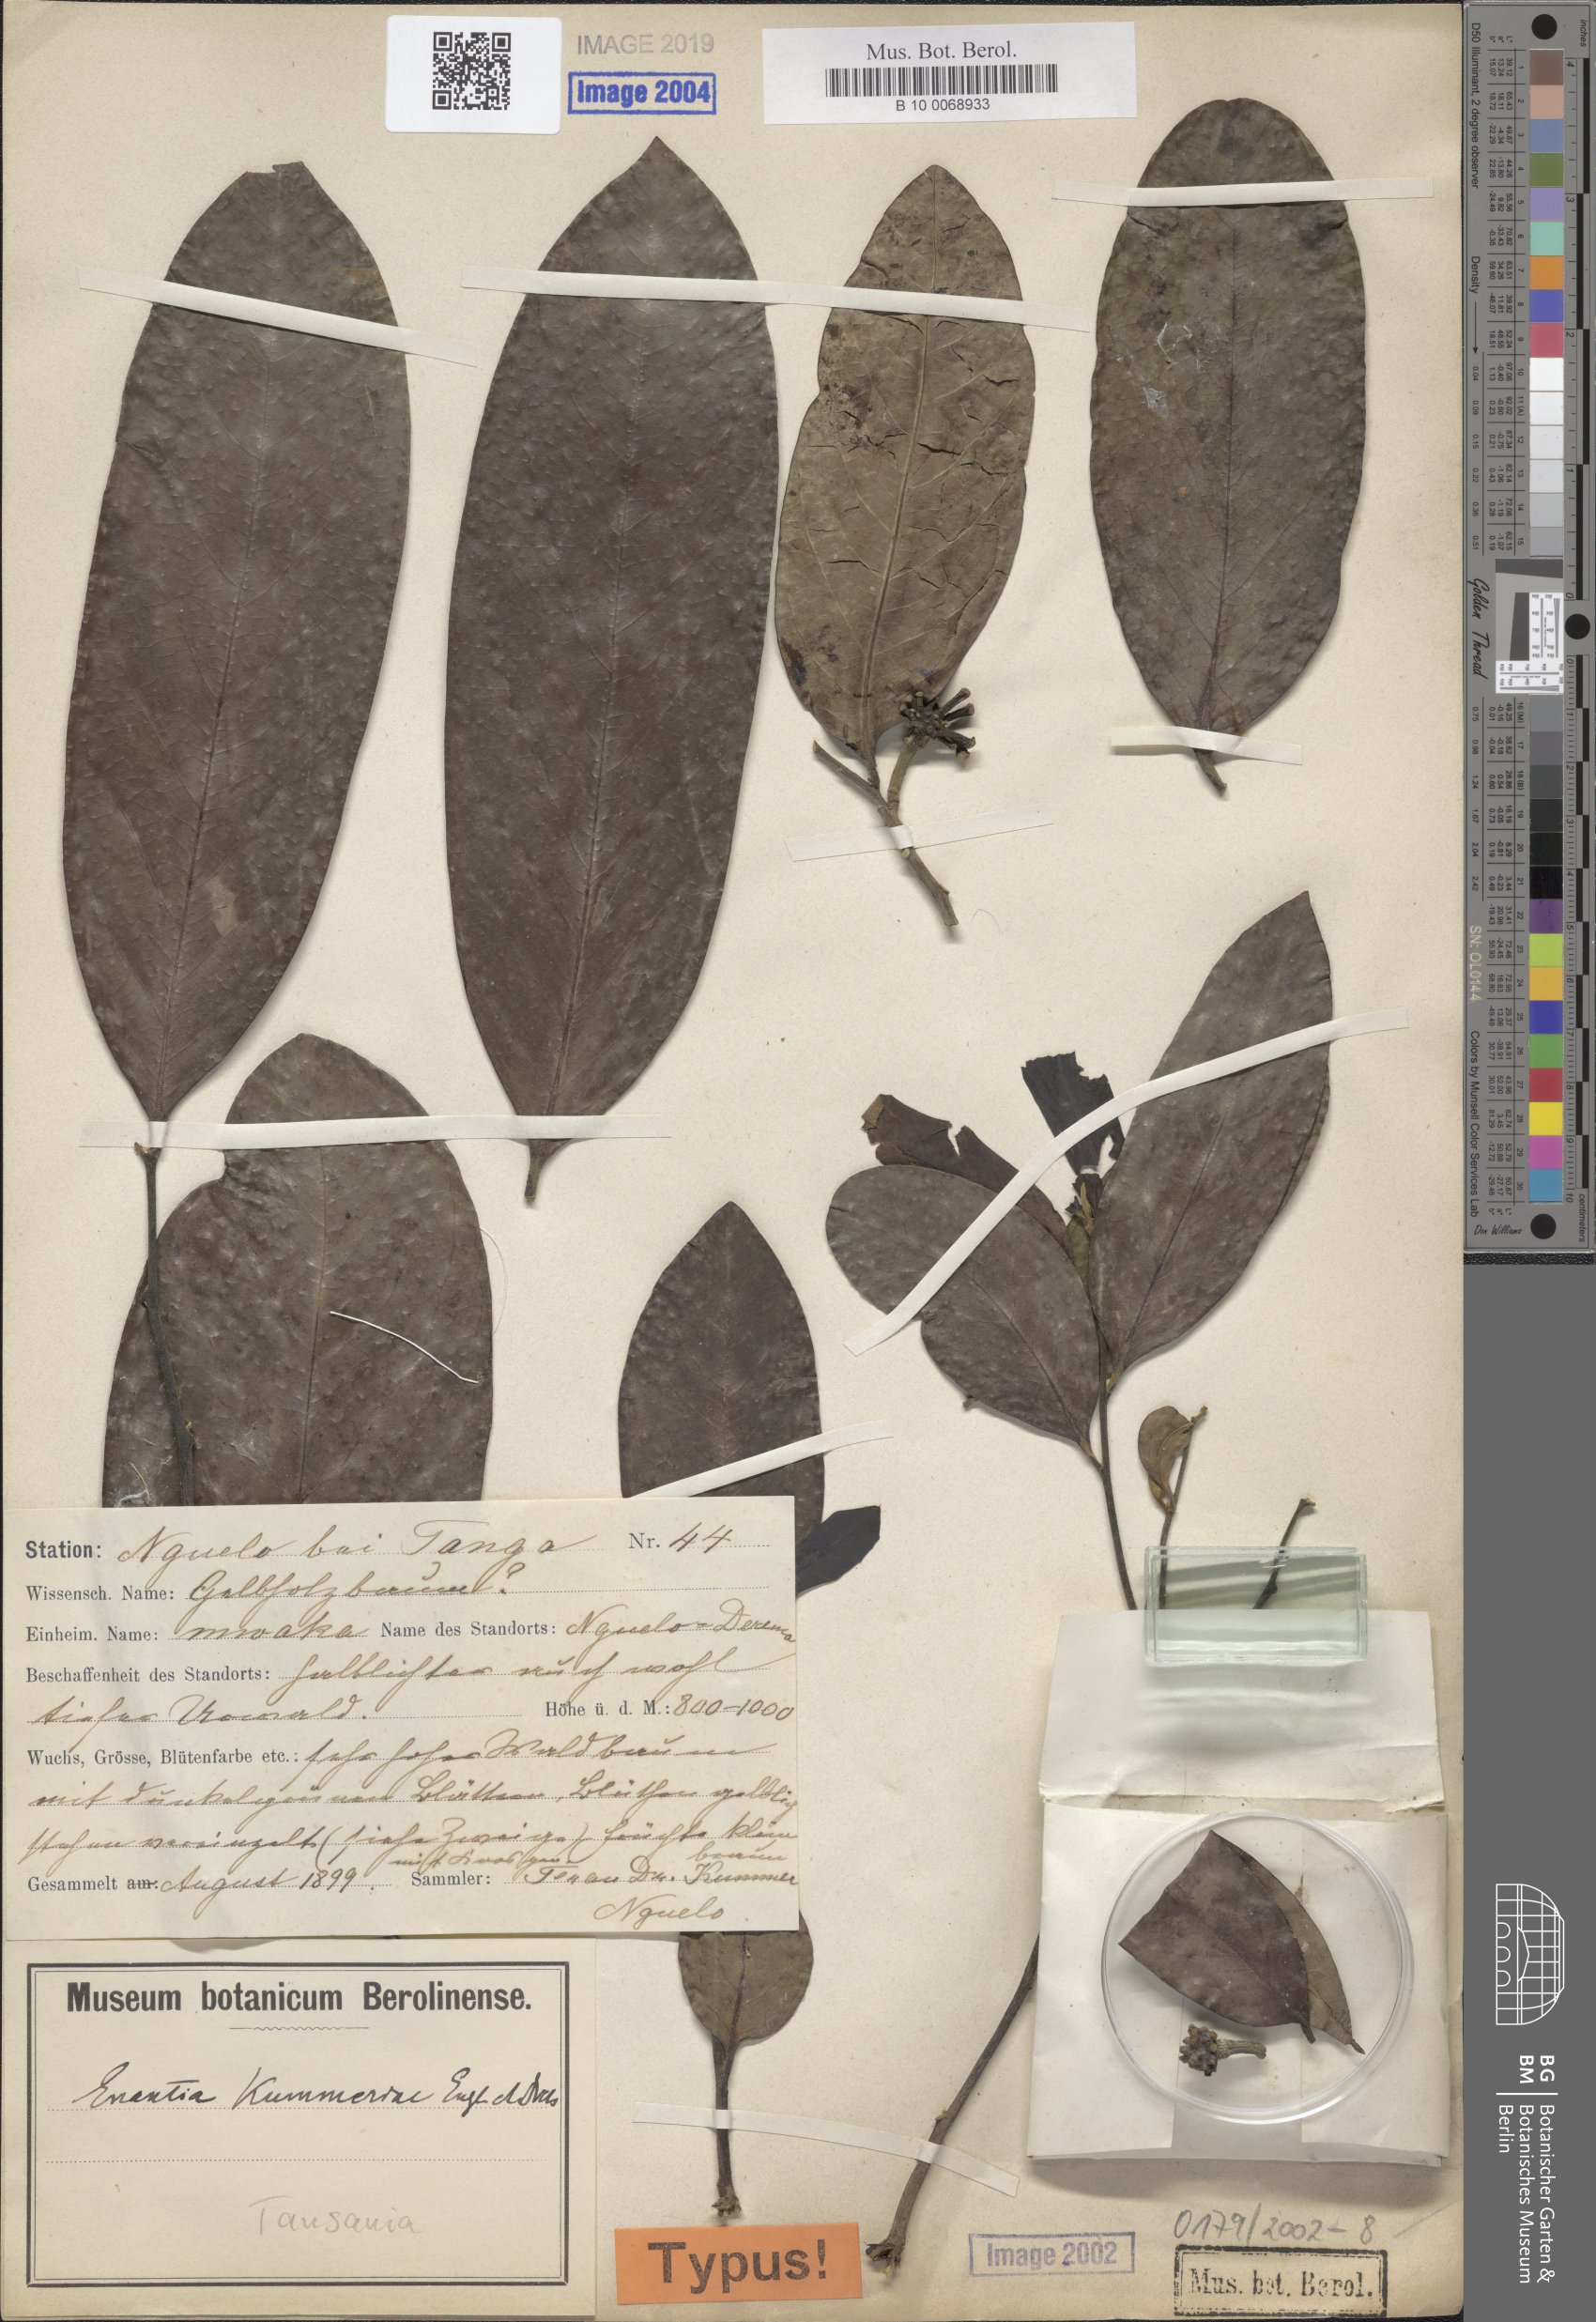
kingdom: Plantae
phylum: Tracheophyta
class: Magnoliopsida
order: Magnoliales
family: Annonaceae
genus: Annickia
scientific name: Annickia kummerae
